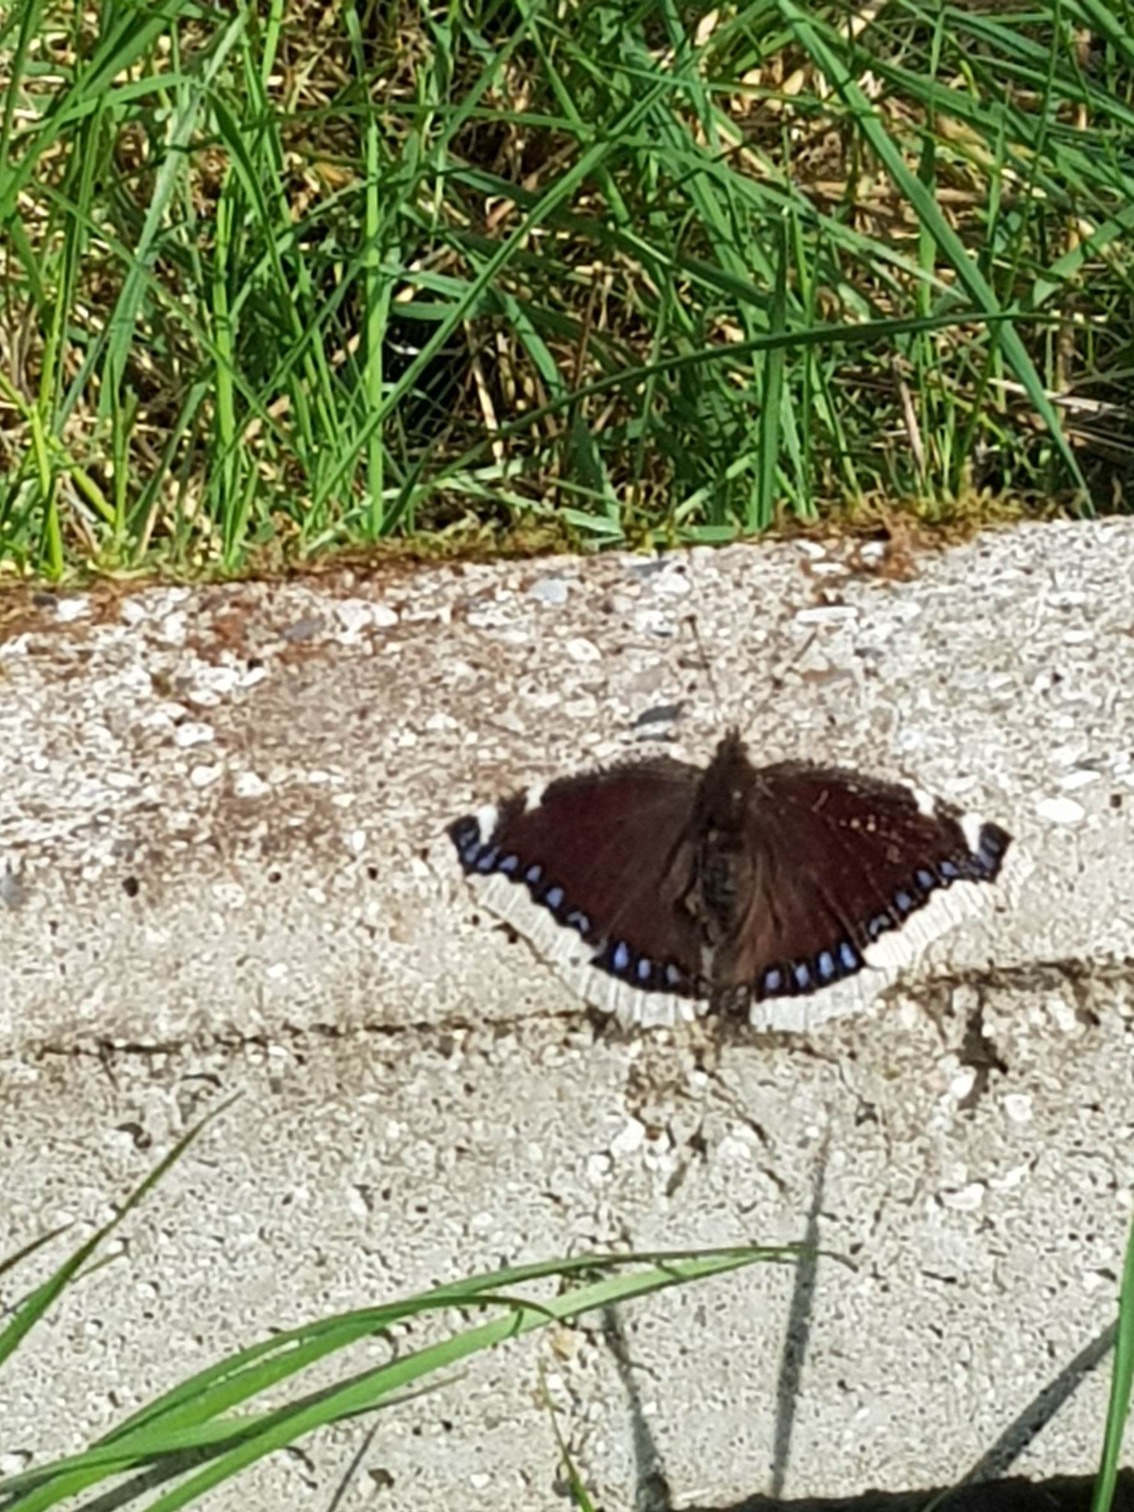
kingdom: Animalia
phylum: Arthropoda
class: Insecta
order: Lepidoptera
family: Nymphalidae
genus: Nymphalis
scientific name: Nymphalis antiopa
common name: Sørgekåbe
